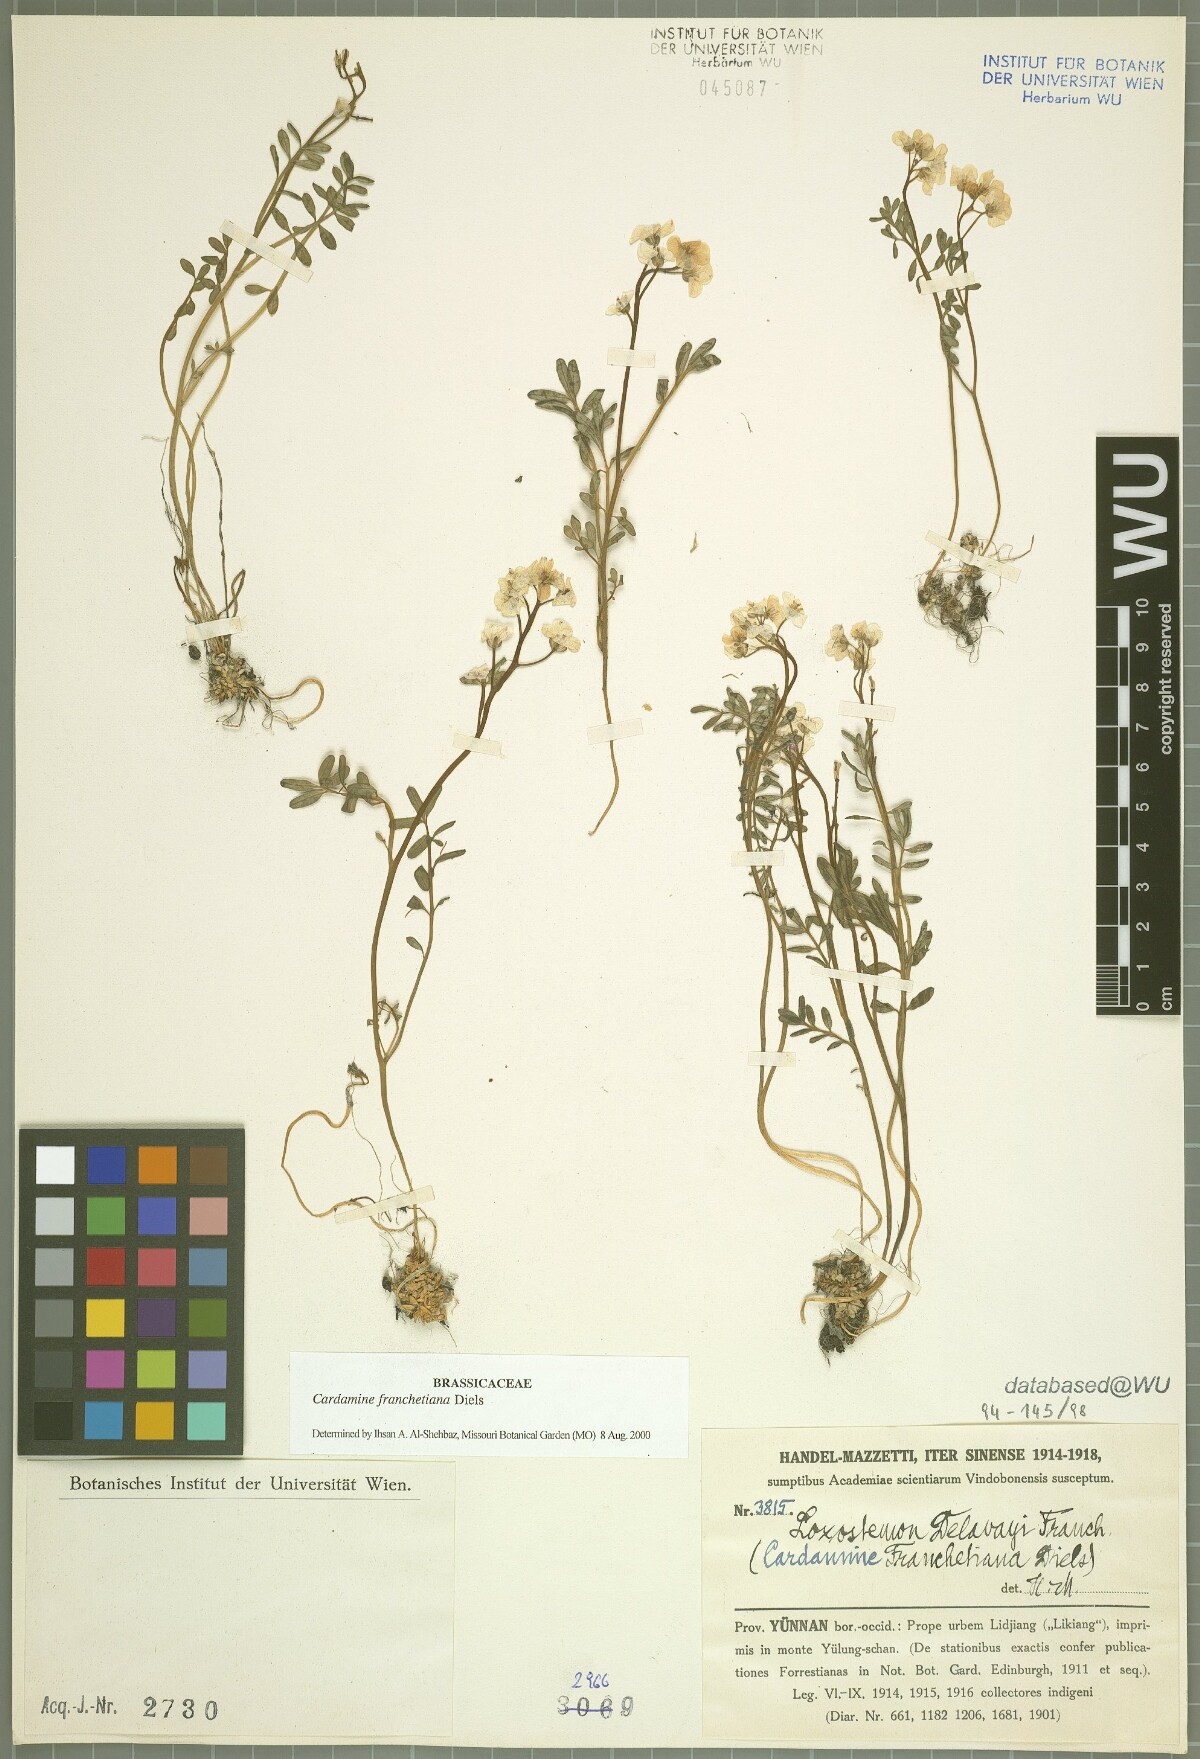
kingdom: Plantae
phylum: Tracheophyta
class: Magnoliopsida
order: Brassicales
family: Brassicaceae
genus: Cardamine
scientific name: Cardamine franchetiana
